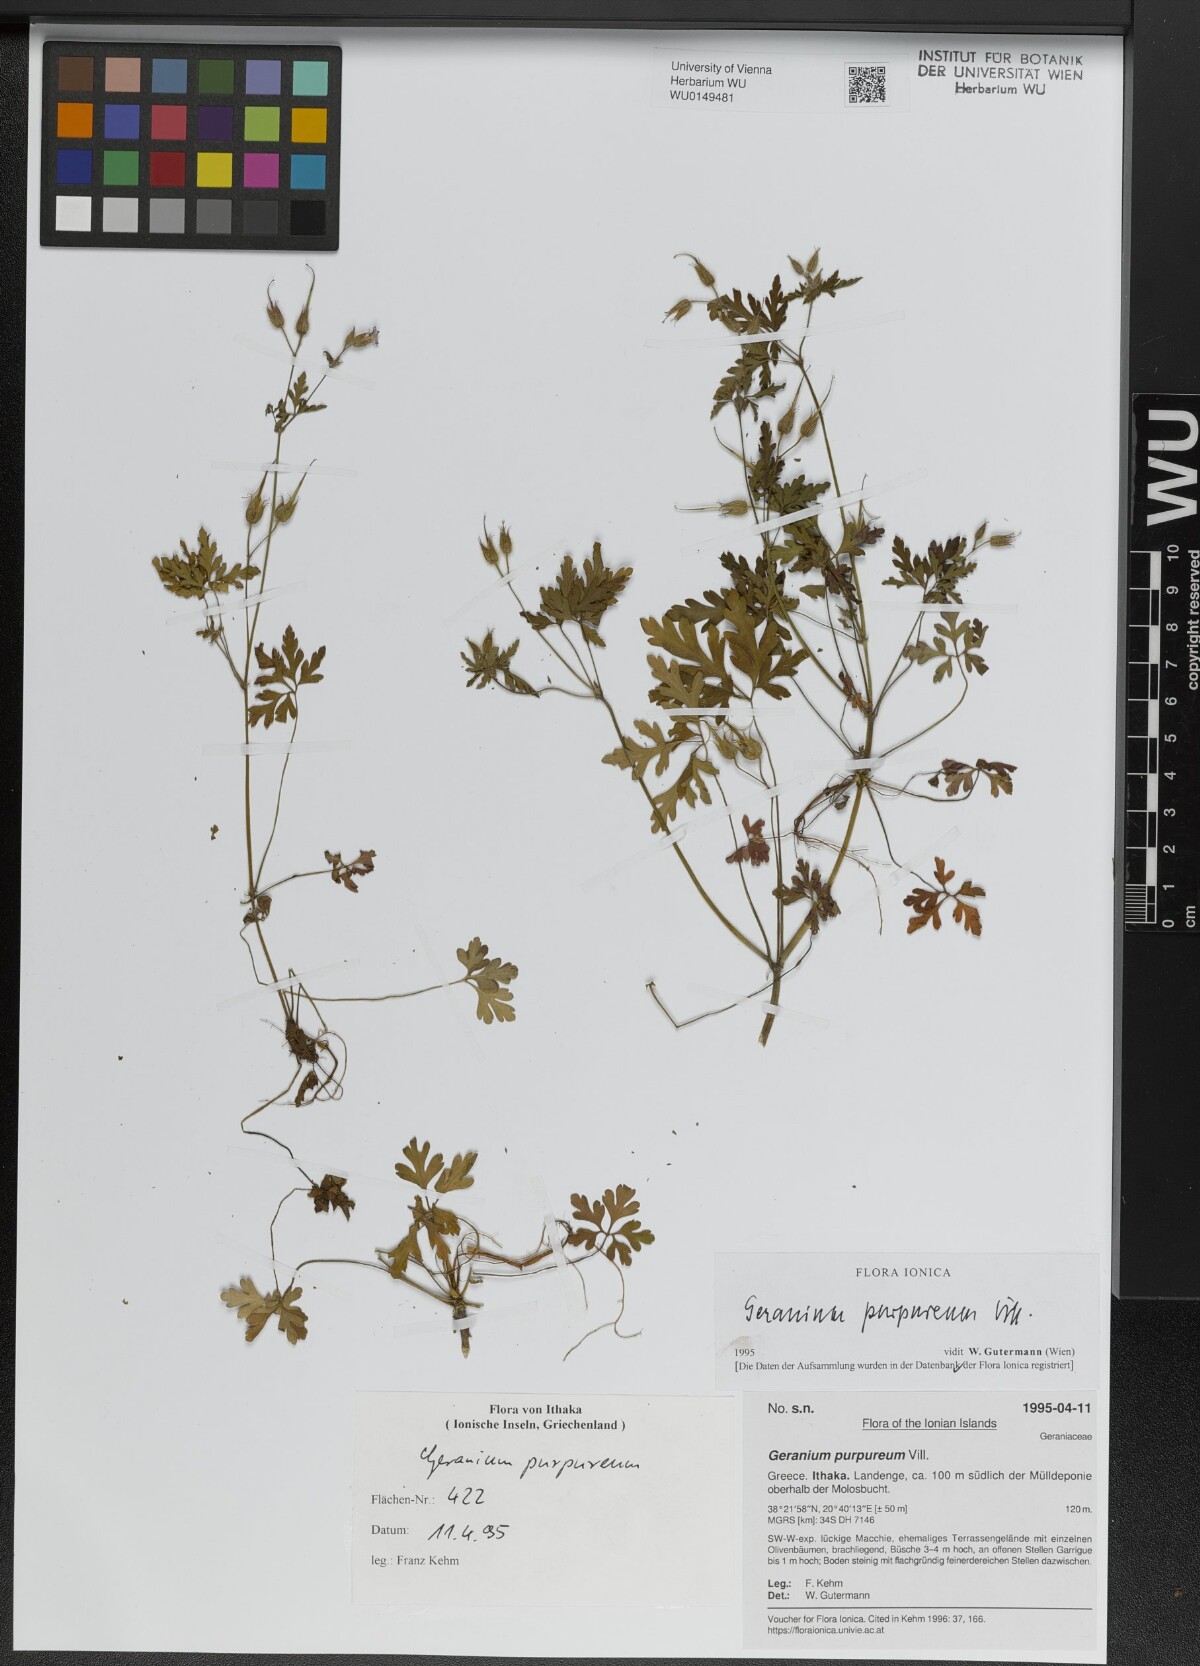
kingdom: Plantae
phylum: Tracheophyta
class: Magnoliopsida
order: Geraniales
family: Geraniaceae
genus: Geranium
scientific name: Geranium purpureum
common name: Little-robin
